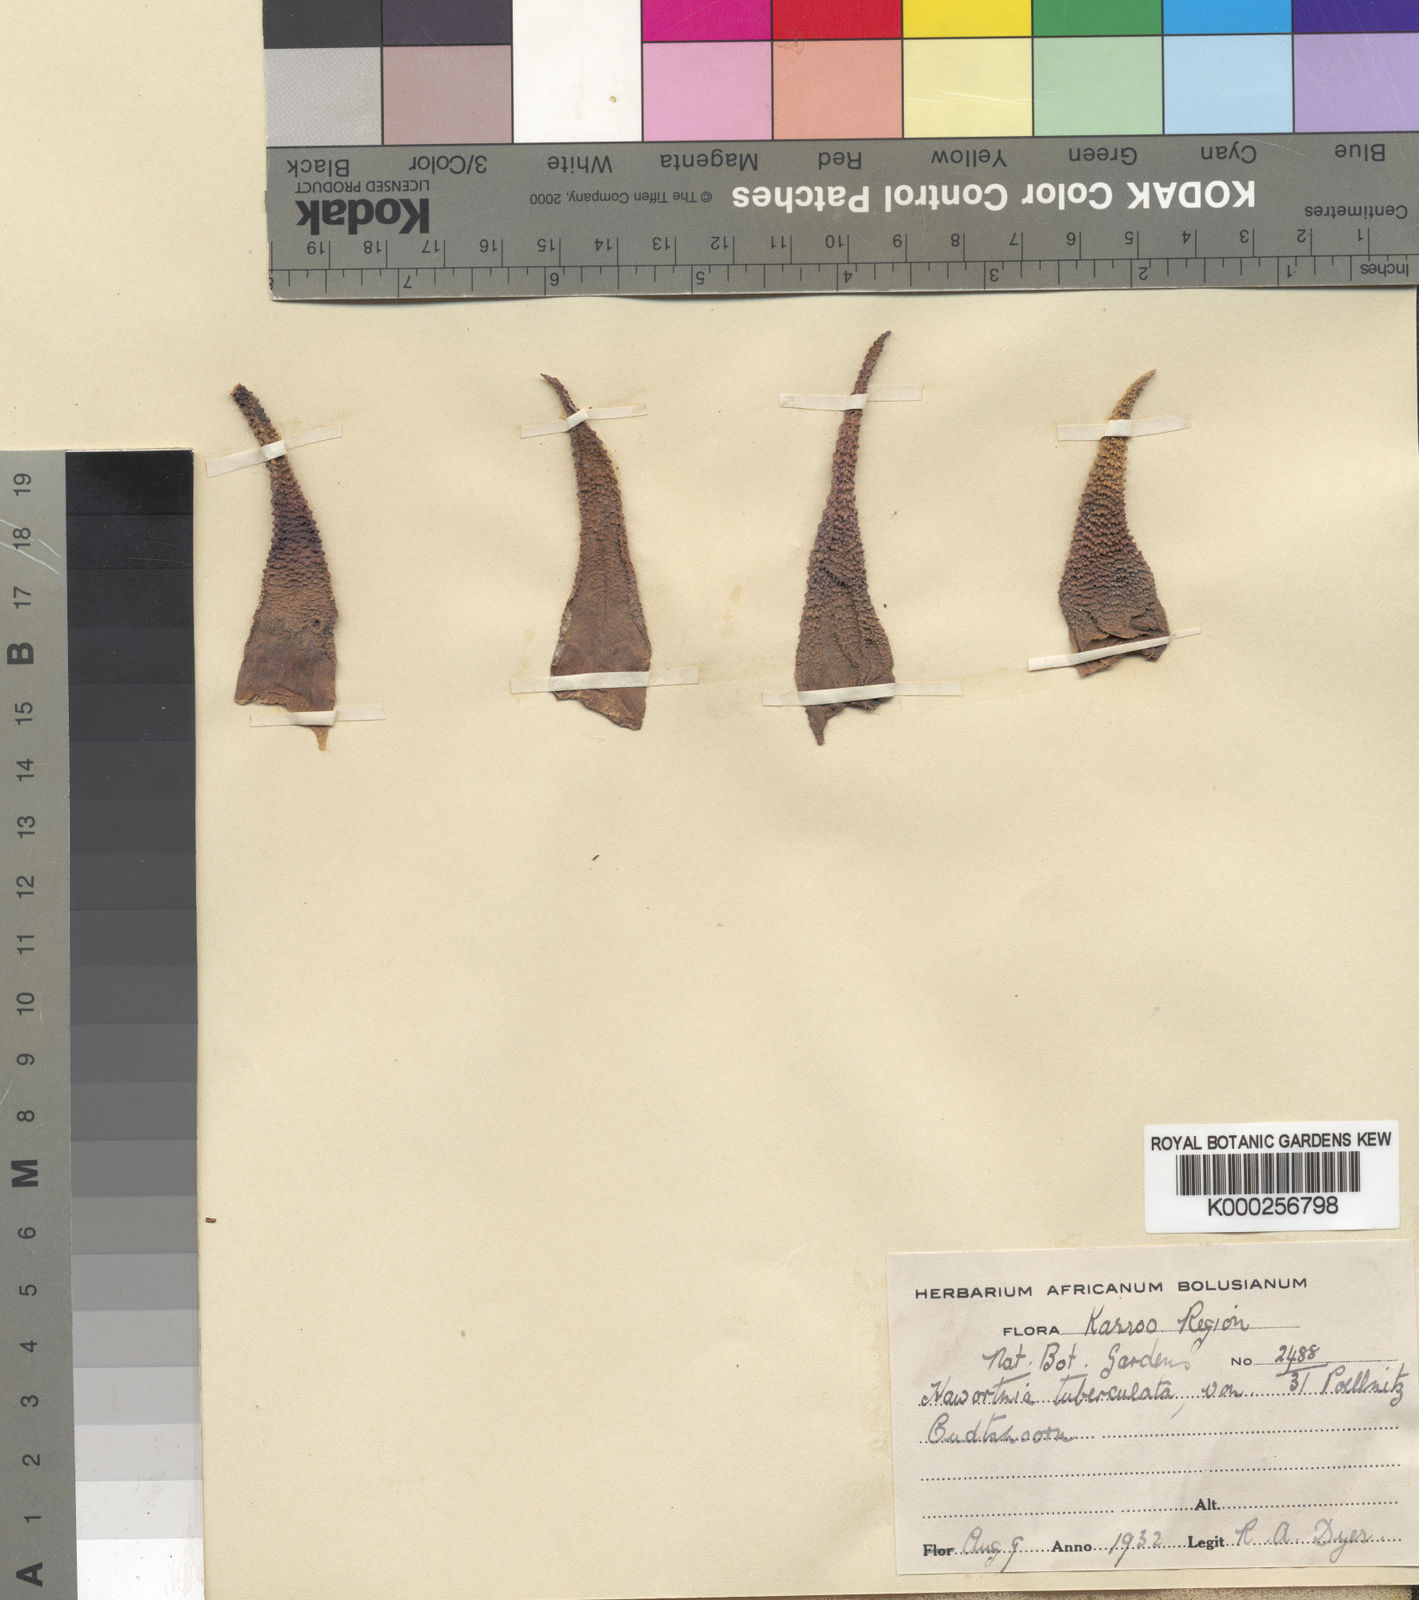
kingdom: Plantae
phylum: Tracheophyta
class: Liliopsida
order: Asparagales
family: Asphodelaceae
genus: Haworthiopsis
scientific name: Haworthiopsis scabra
